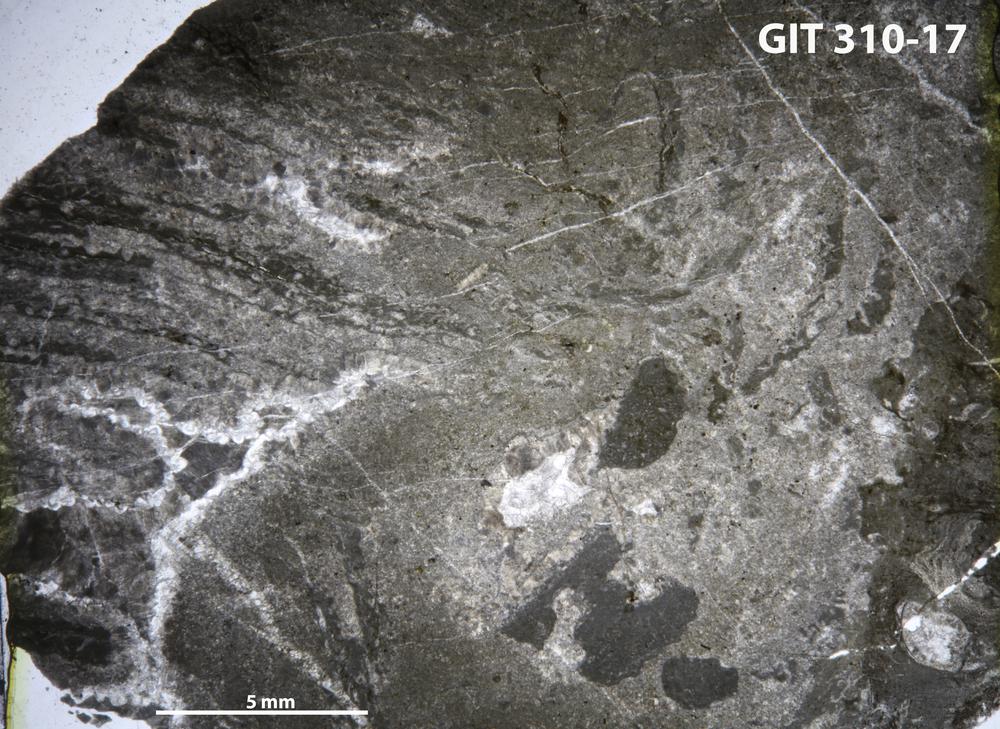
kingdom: Animalia
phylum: Porifera
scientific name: Porifera
